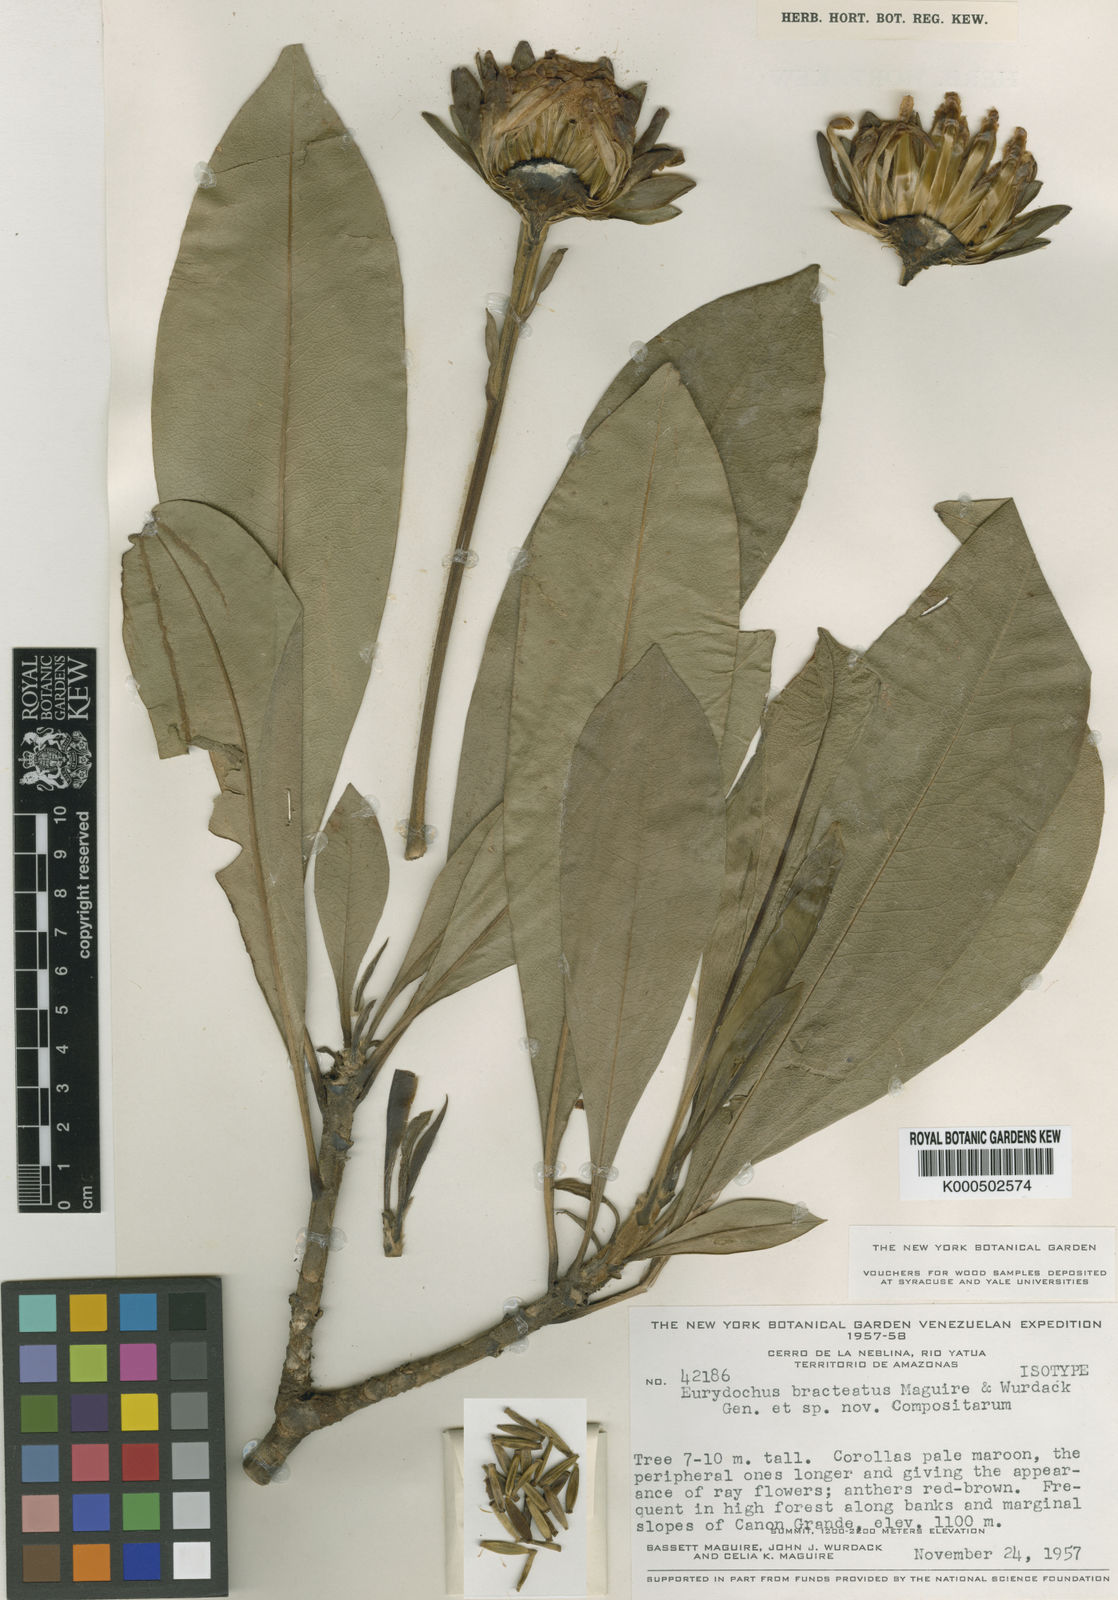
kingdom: Plantae
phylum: Tracheophyta
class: Magnoliopsida
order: Asterales
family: Asteraceae
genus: Eurydochus
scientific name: Eurydochus bracteatus
